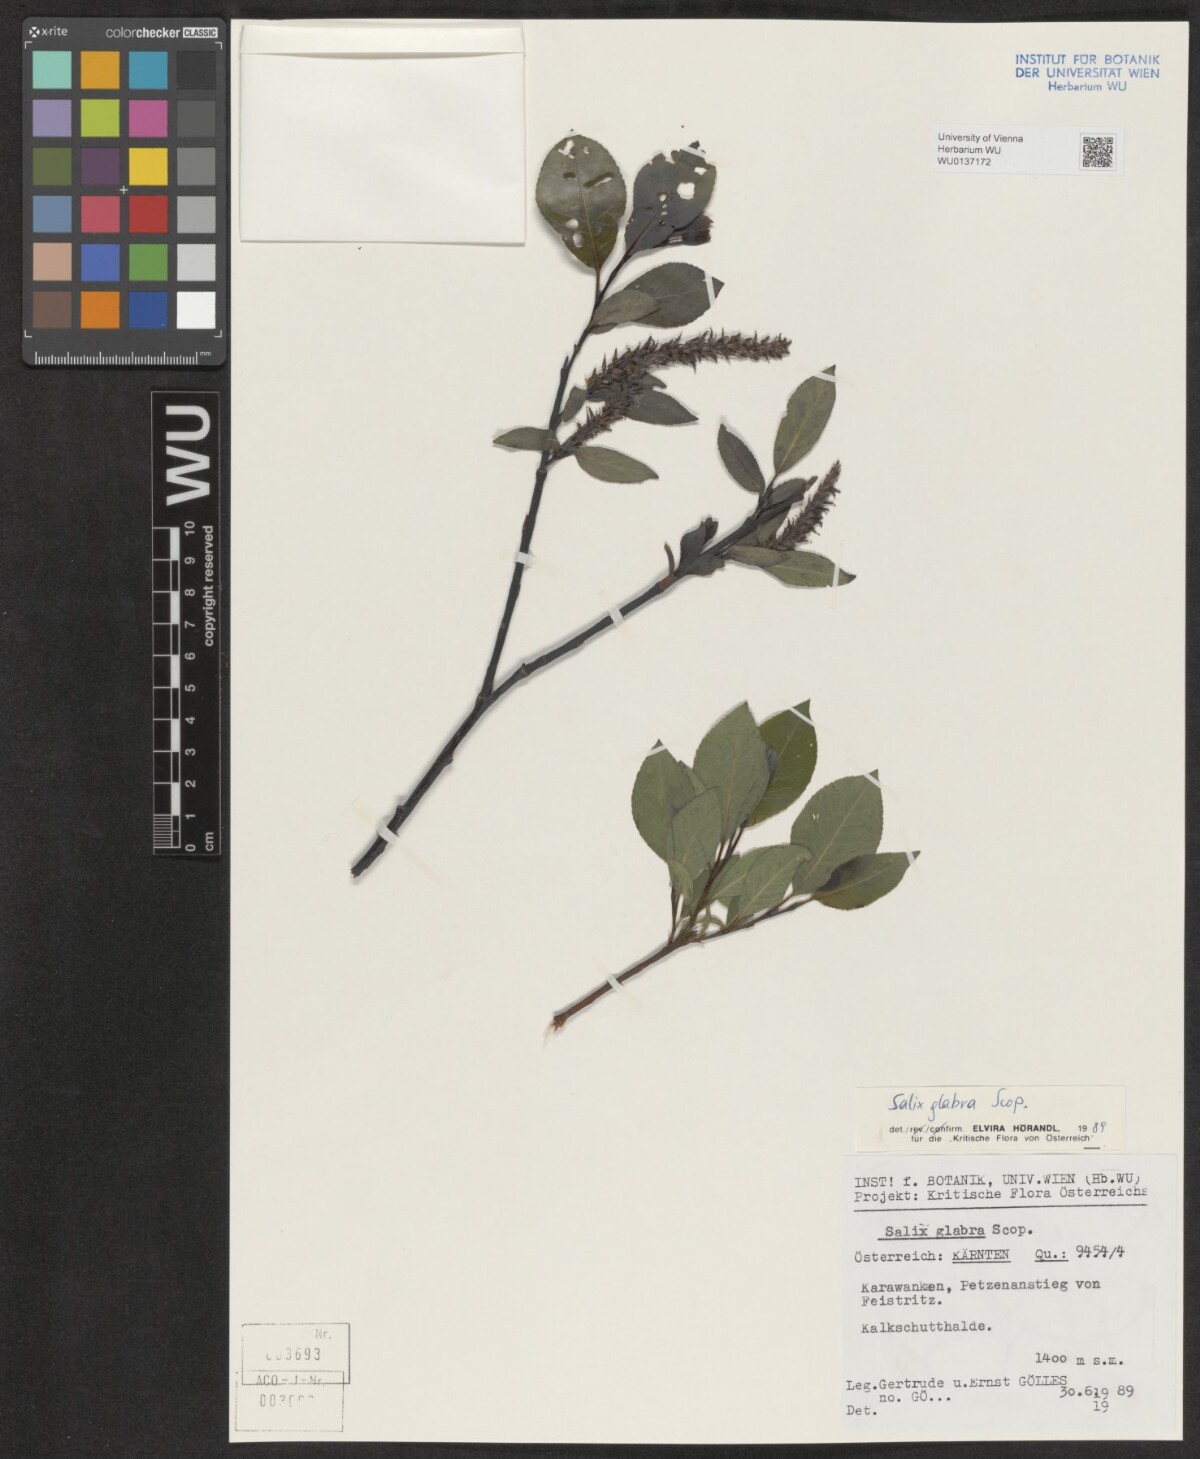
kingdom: Plantae
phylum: Tracheophyta
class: Magnoliopsida
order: Malpighiales
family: Salicaceae
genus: Salix
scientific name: Salix glabra
